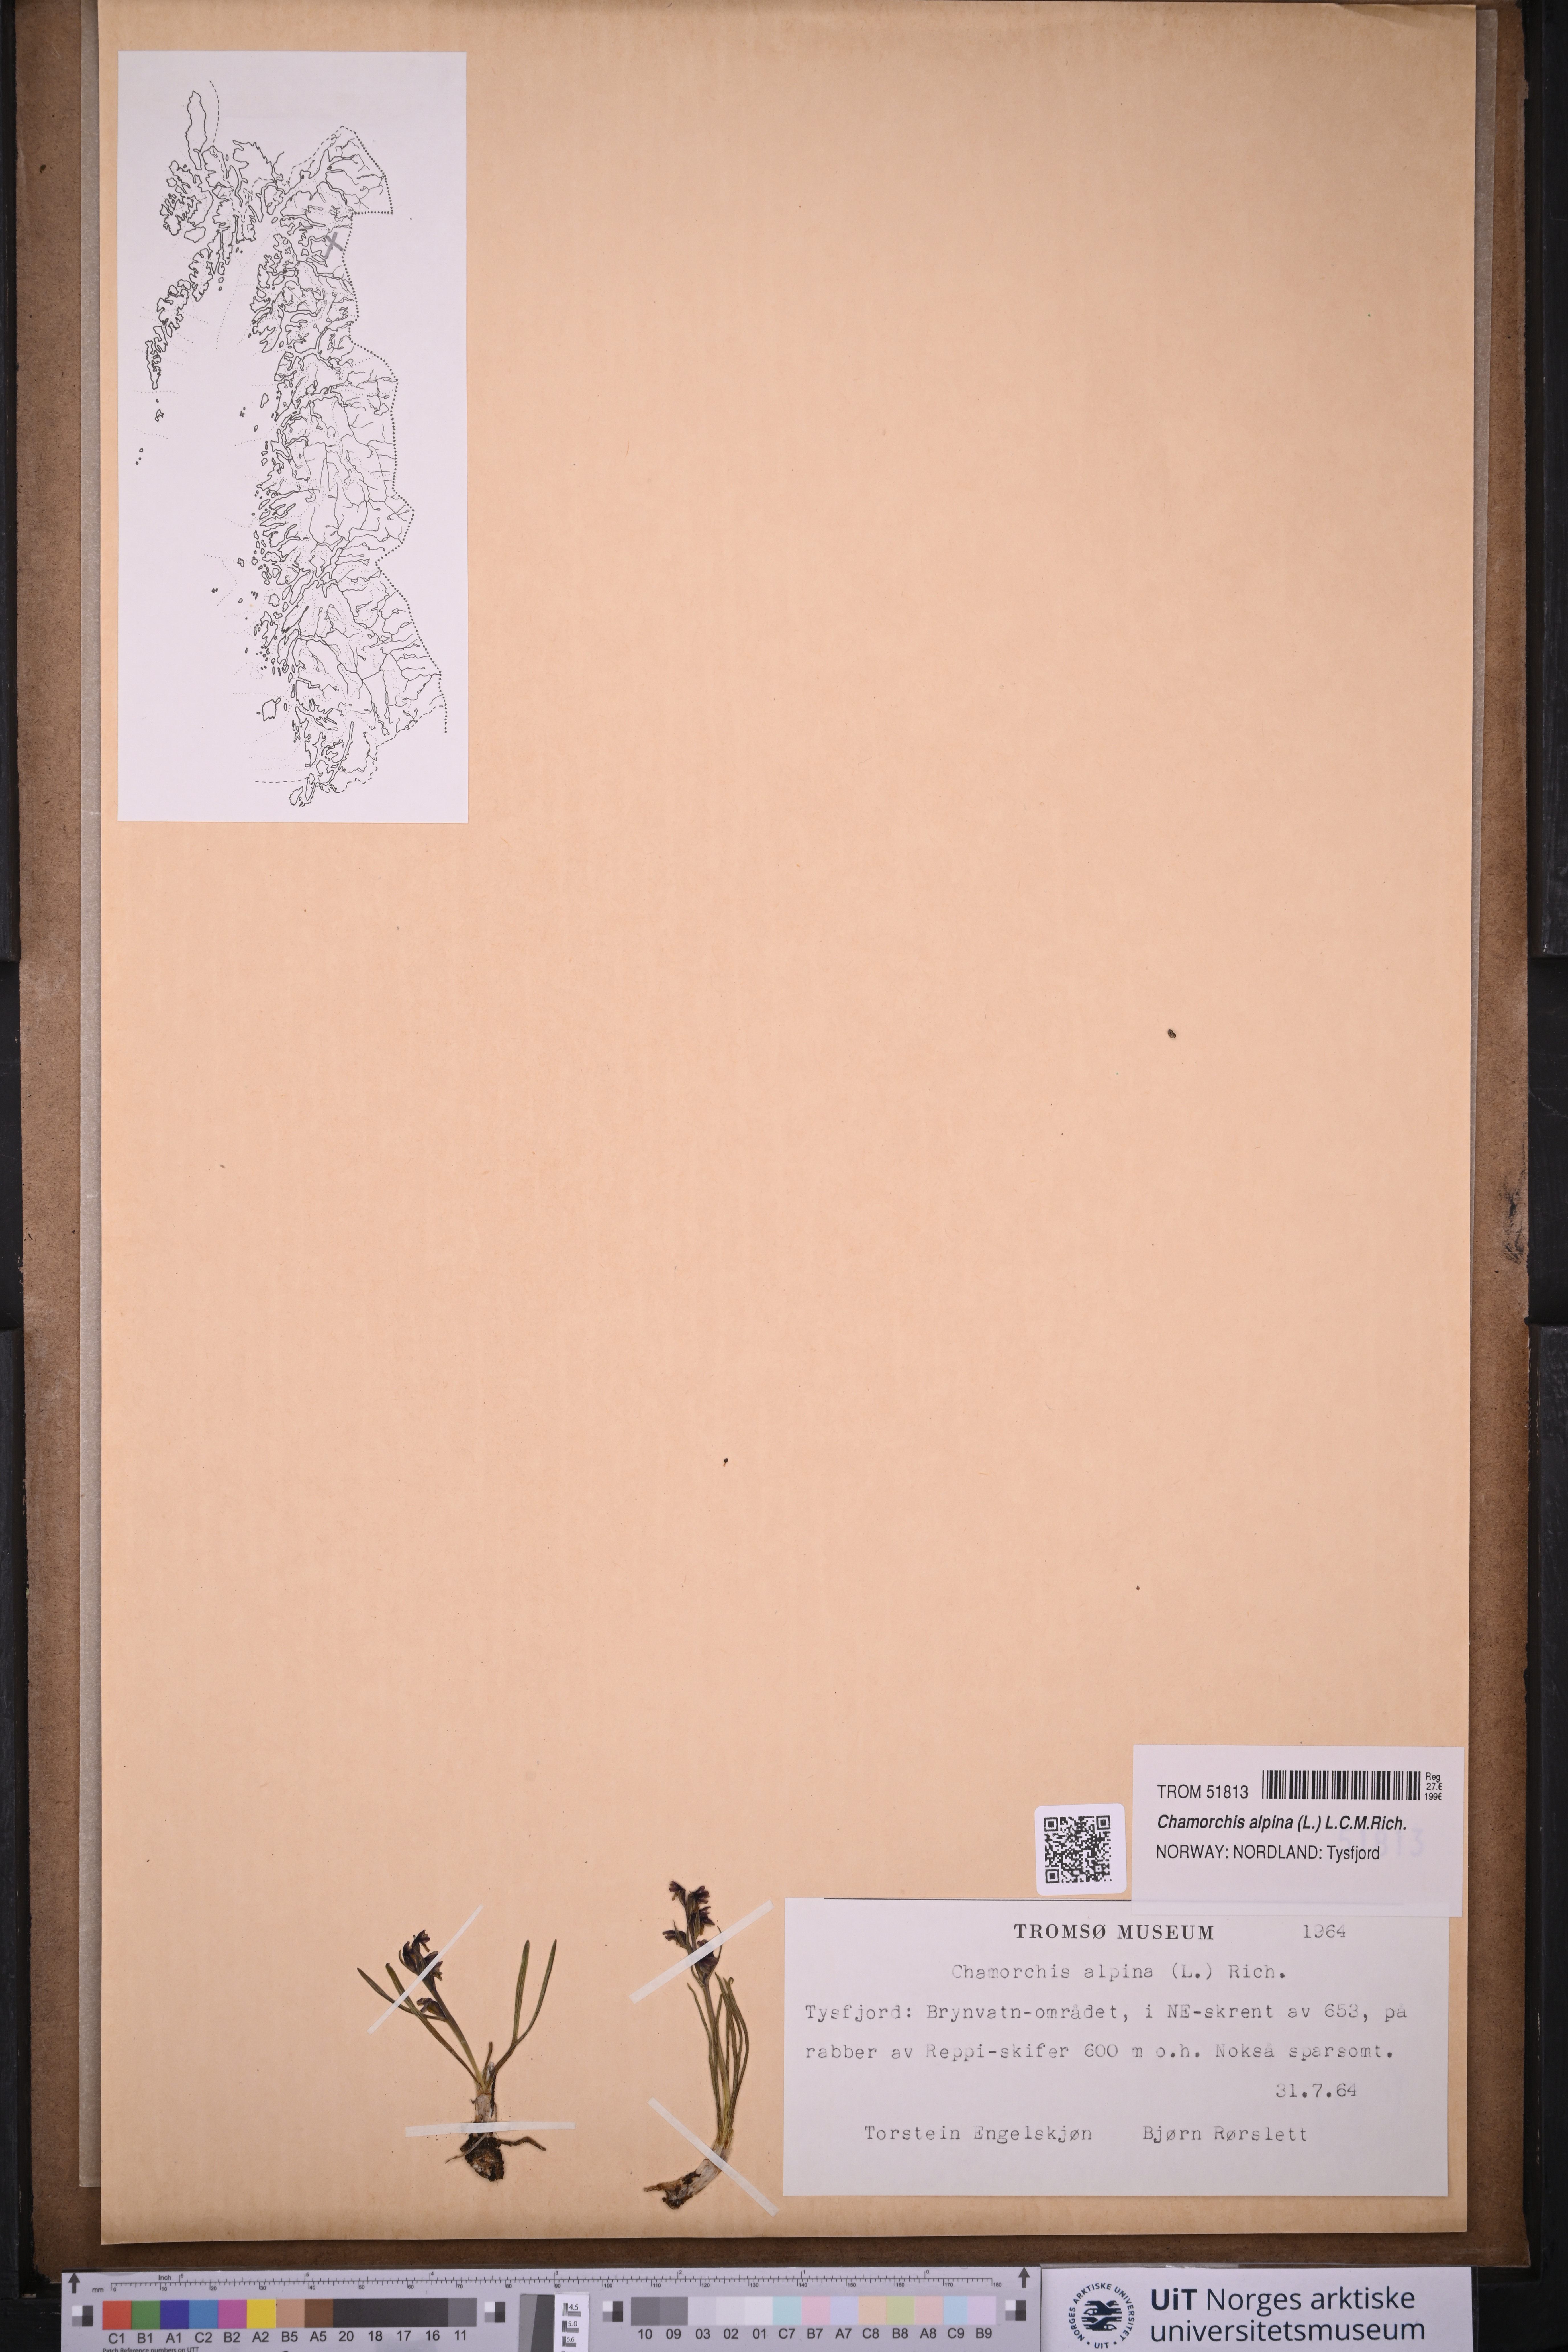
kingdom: Plantae
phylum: Tracheophyta
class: Liliopsida
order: Asparagales
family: Orchidaceae
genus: Chamorchis
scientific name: Chamorchis alpina
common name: Alpine chamorchis
